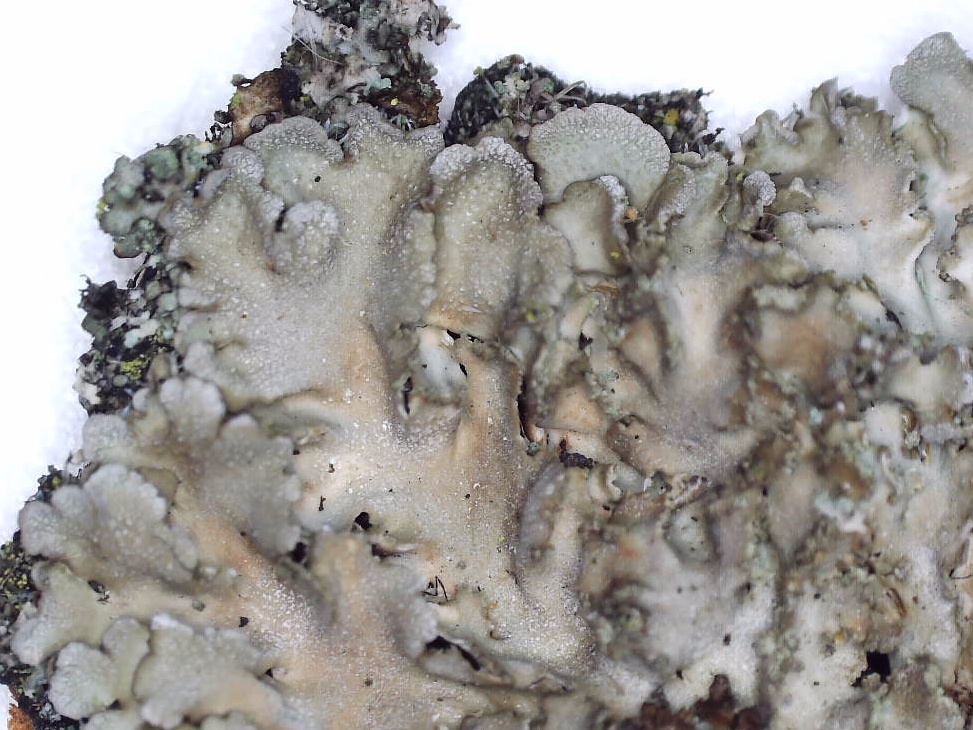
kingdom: Fungi
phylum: Ascomycota
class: Lecanoromycetes
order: Caliciales
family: Physciaceae
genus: Poeltonia
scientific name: Poeltonia grisea
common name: hvidgrå dugrosetlav
